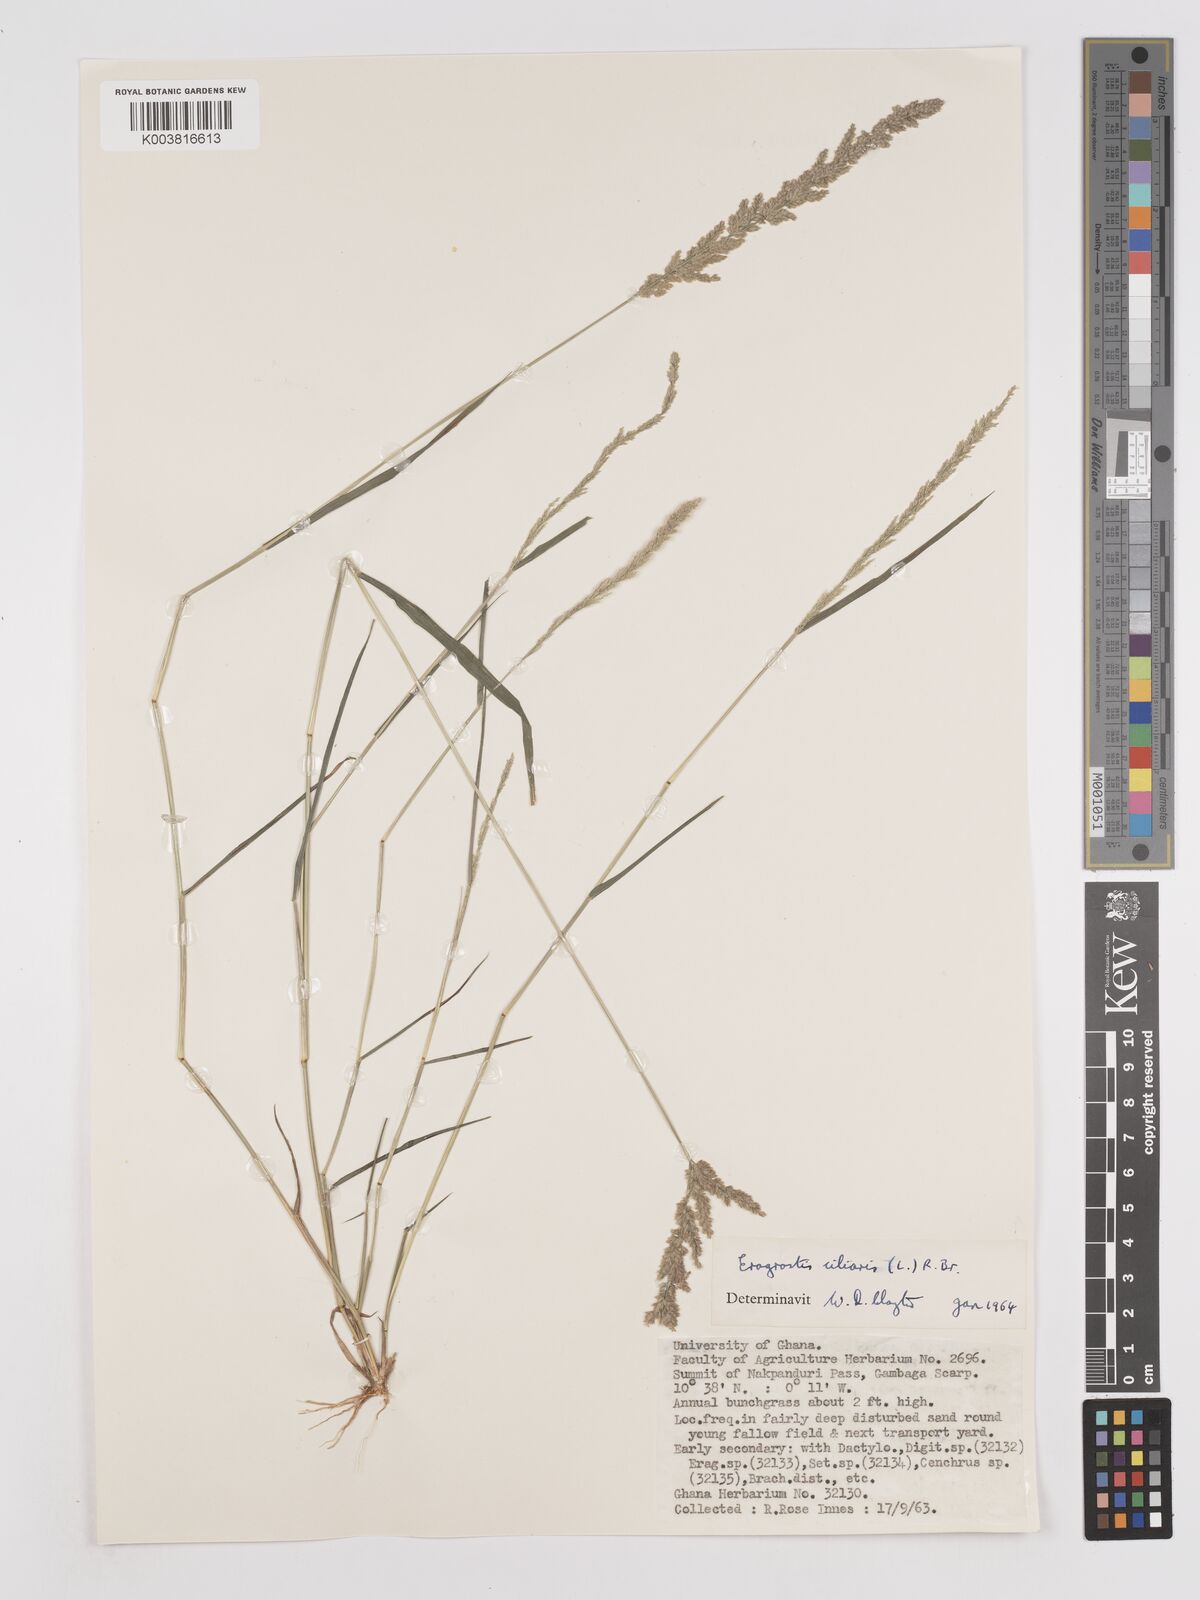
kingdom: Plantae
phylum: Tracheophyta
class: Liliopsida
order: Poales
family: Poaceae
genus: Eragrostis
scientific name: Eragrostis ciliaris
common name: Gophertail lovegrass
